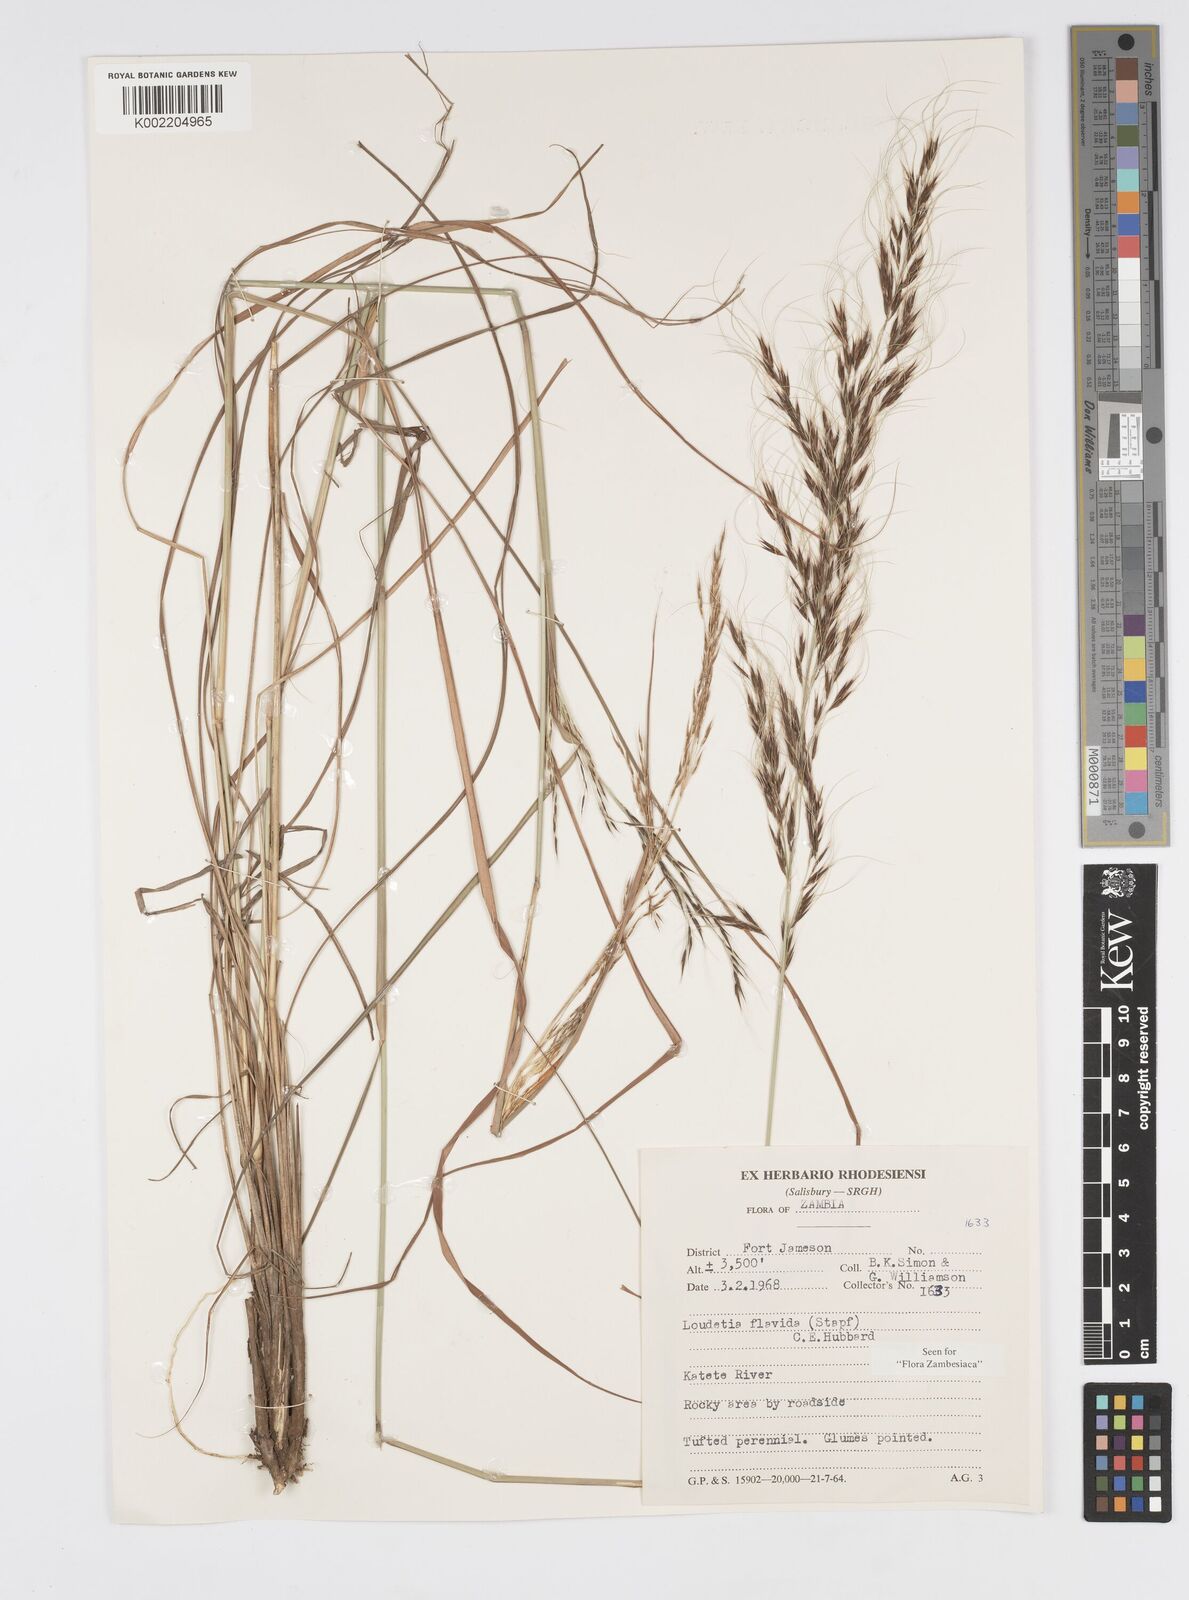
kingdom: Plantae
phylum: Tracheophyta
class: Liliopsida
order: Poales
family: Poaceae
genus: Loudetia
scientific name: Loudetia flavida
